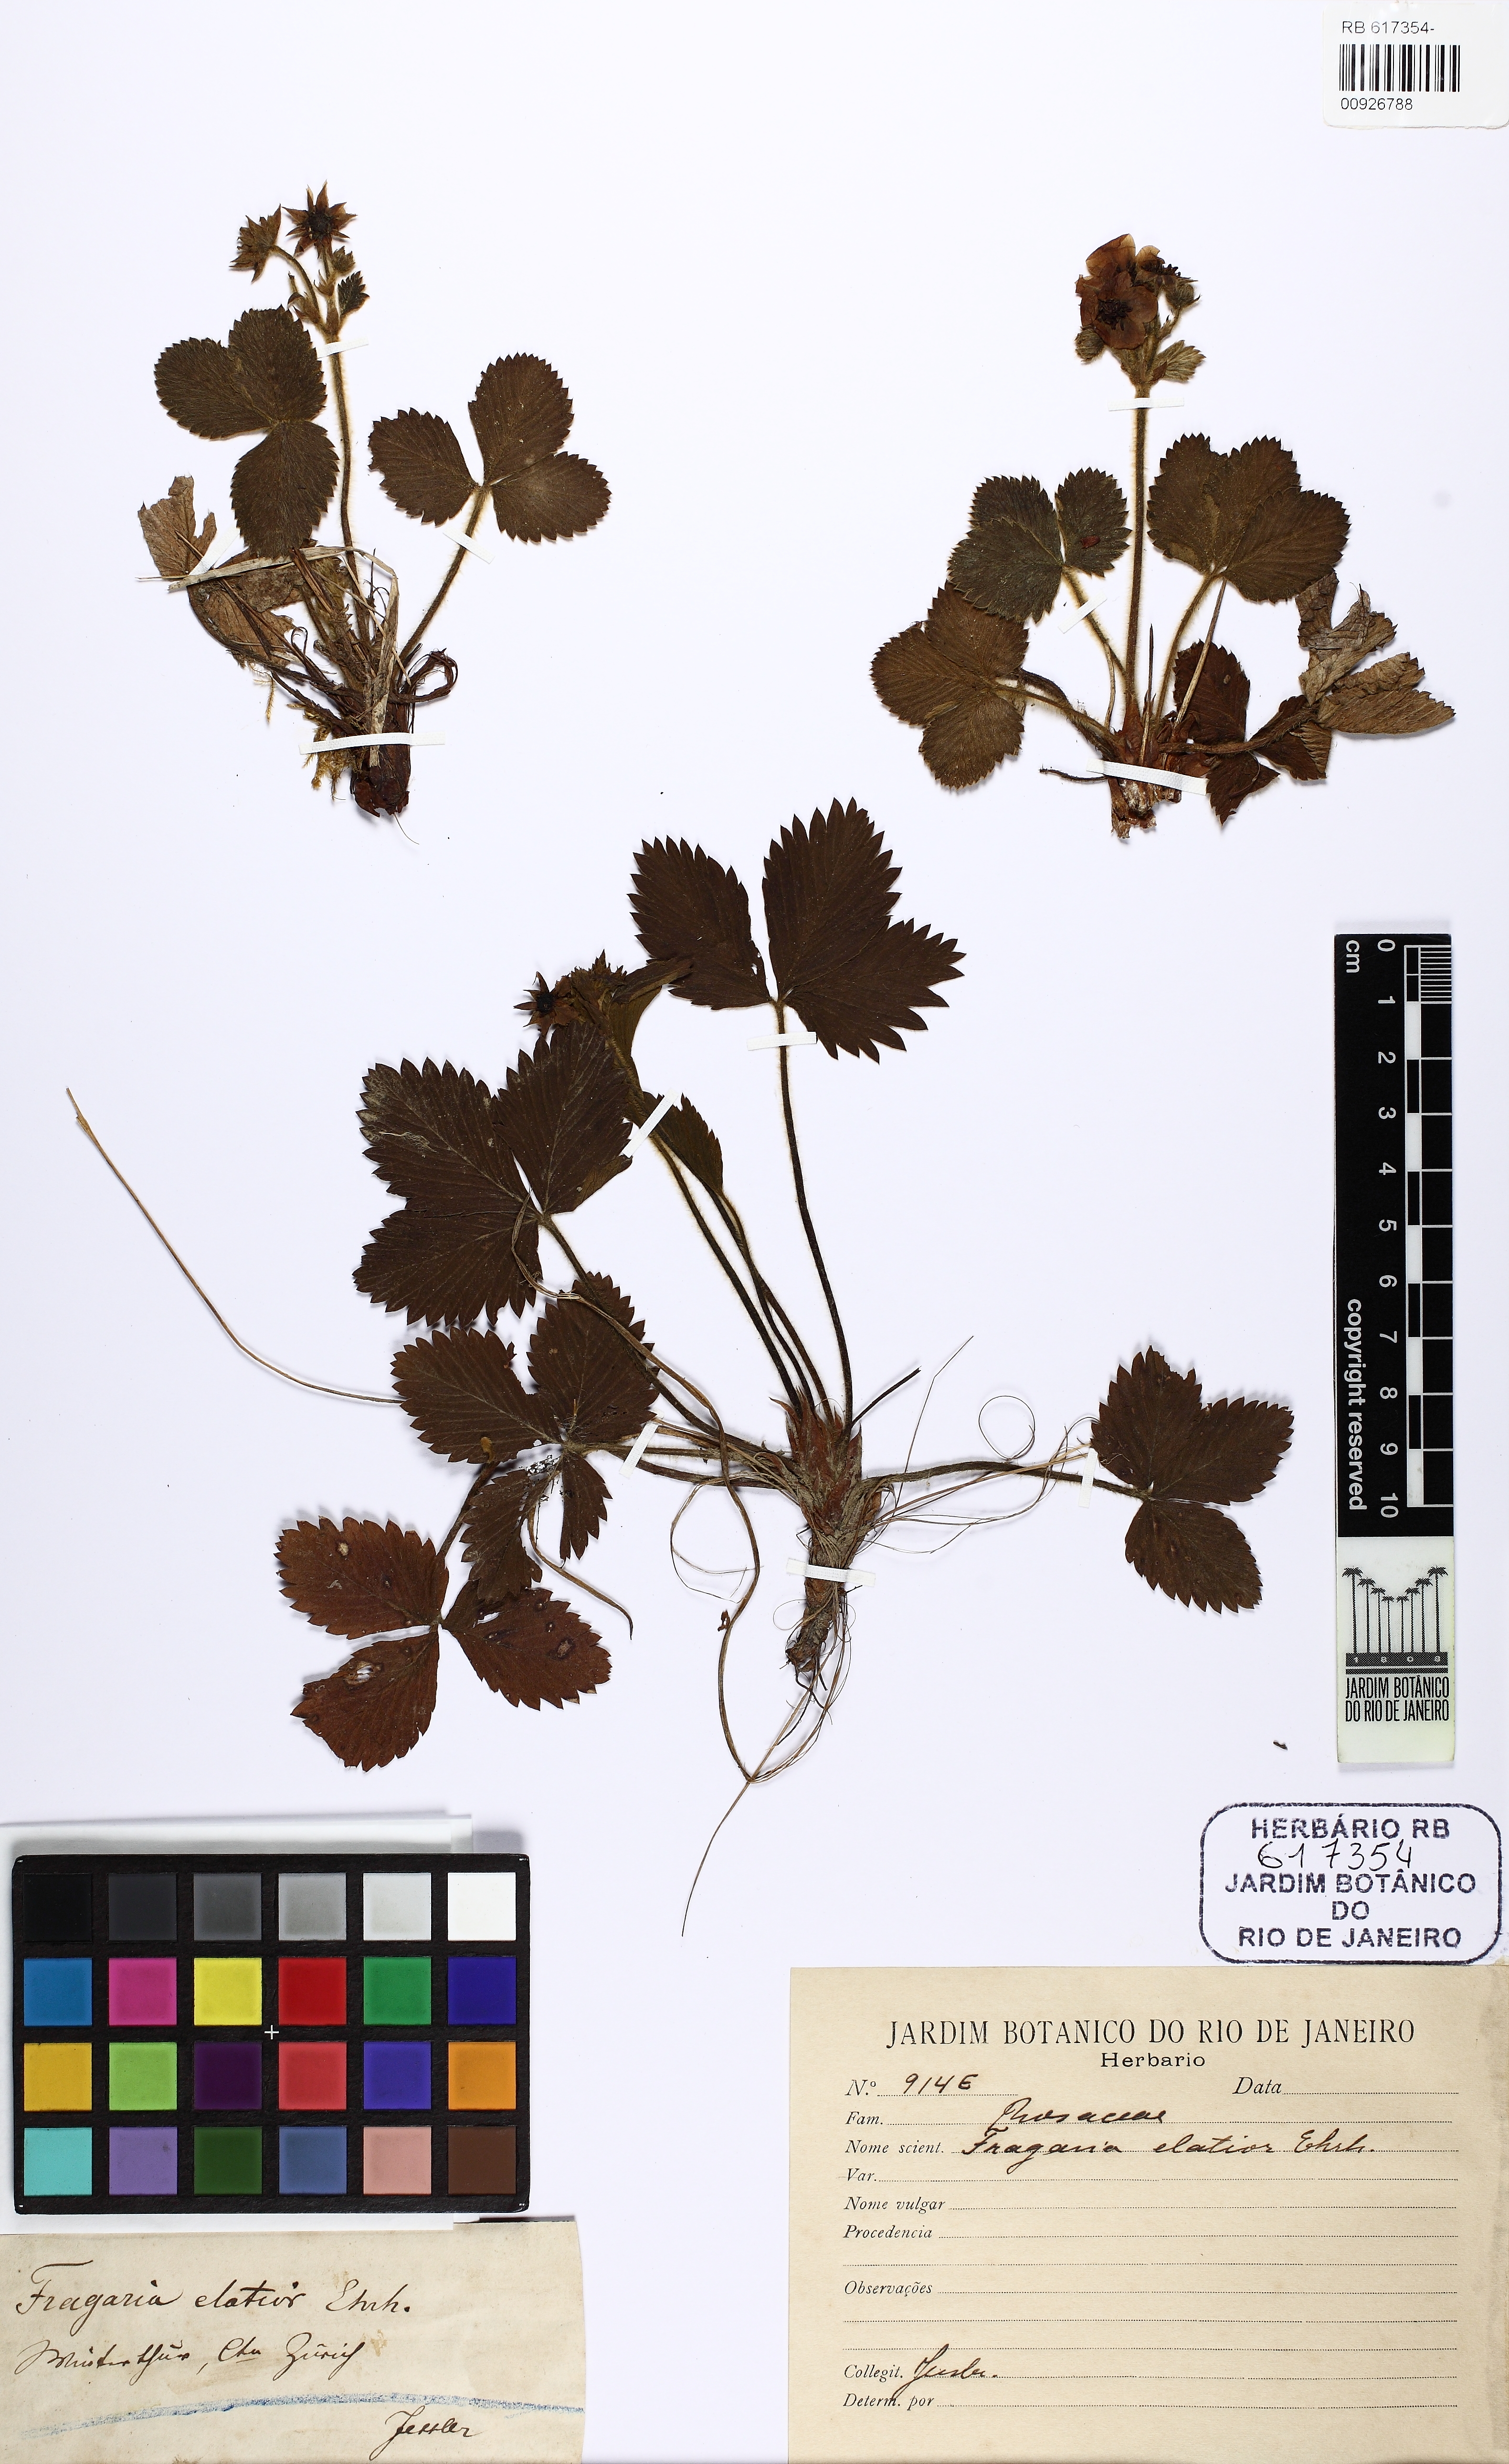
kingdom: Plantae
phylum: Tracheophyta
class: Magnoliopsida
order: Rosales
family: Rosaceae
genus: Fragaria
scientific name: Fragaria
